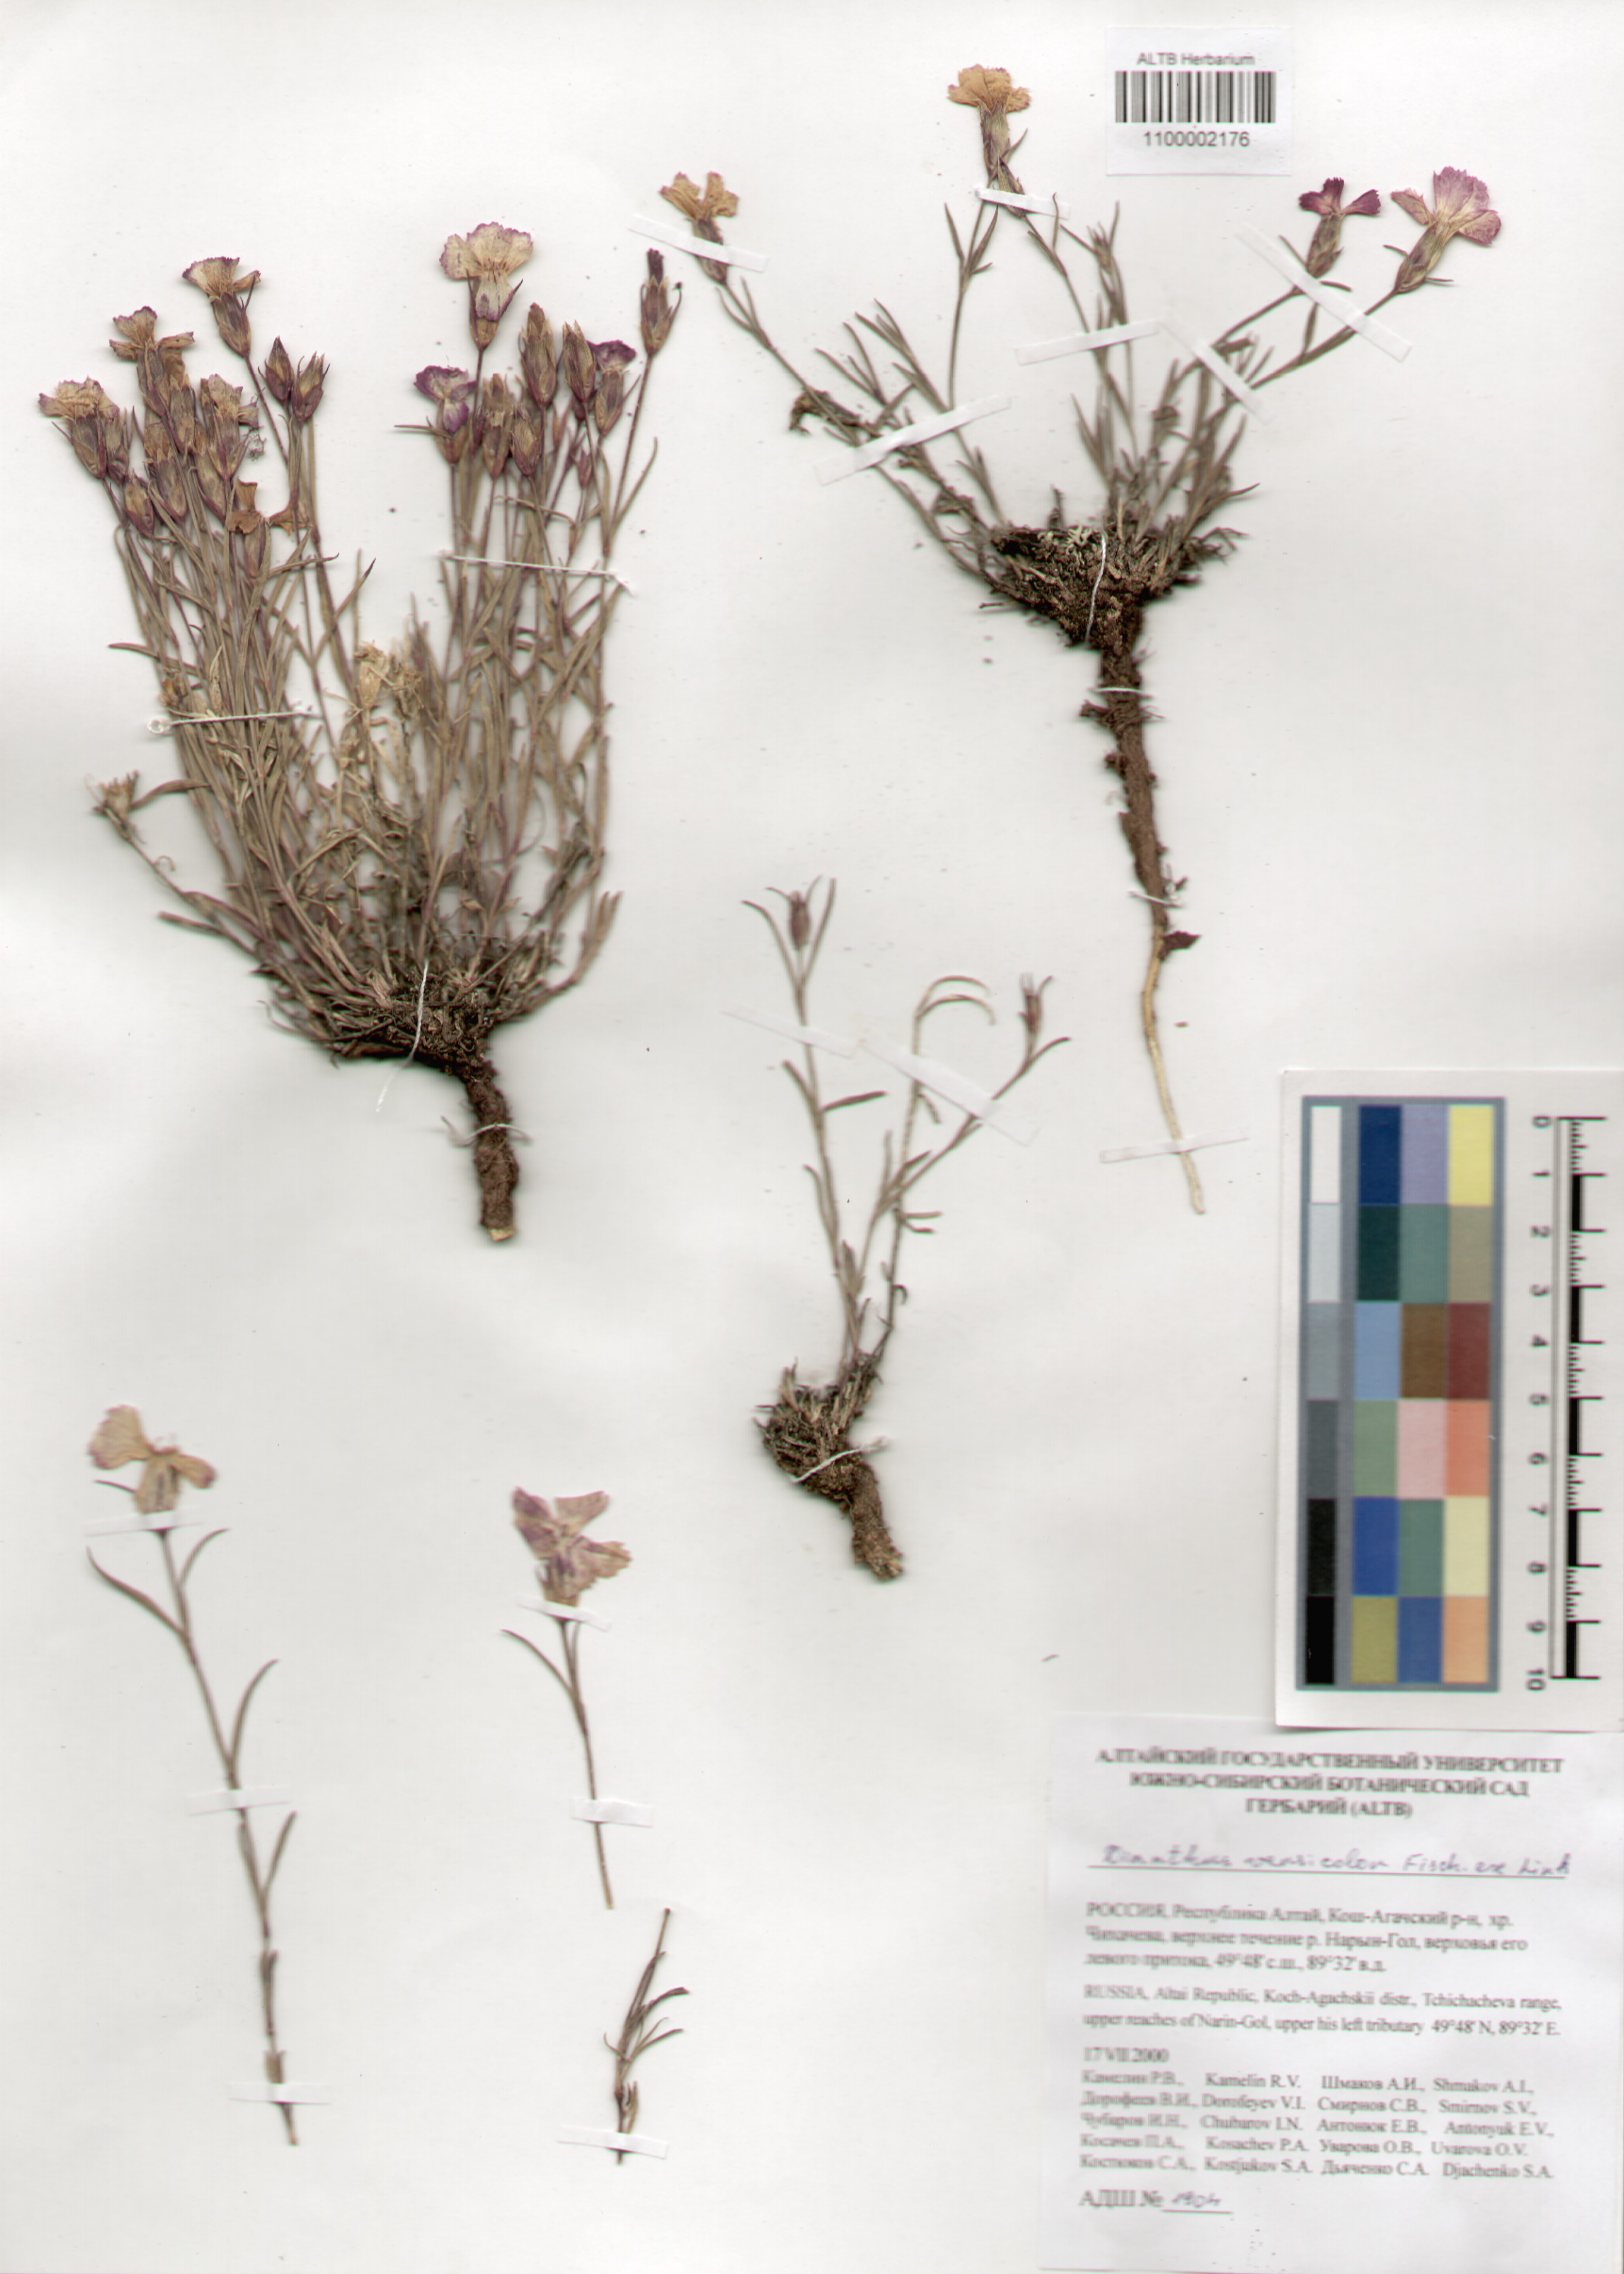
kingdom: Plantae
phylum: Tracheophyta
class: Magnoliopsida
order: Caryophyllales
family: Caryophyllaceae
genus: Dianthus
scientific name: Dianthus chinensis
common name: Rainbow pink
